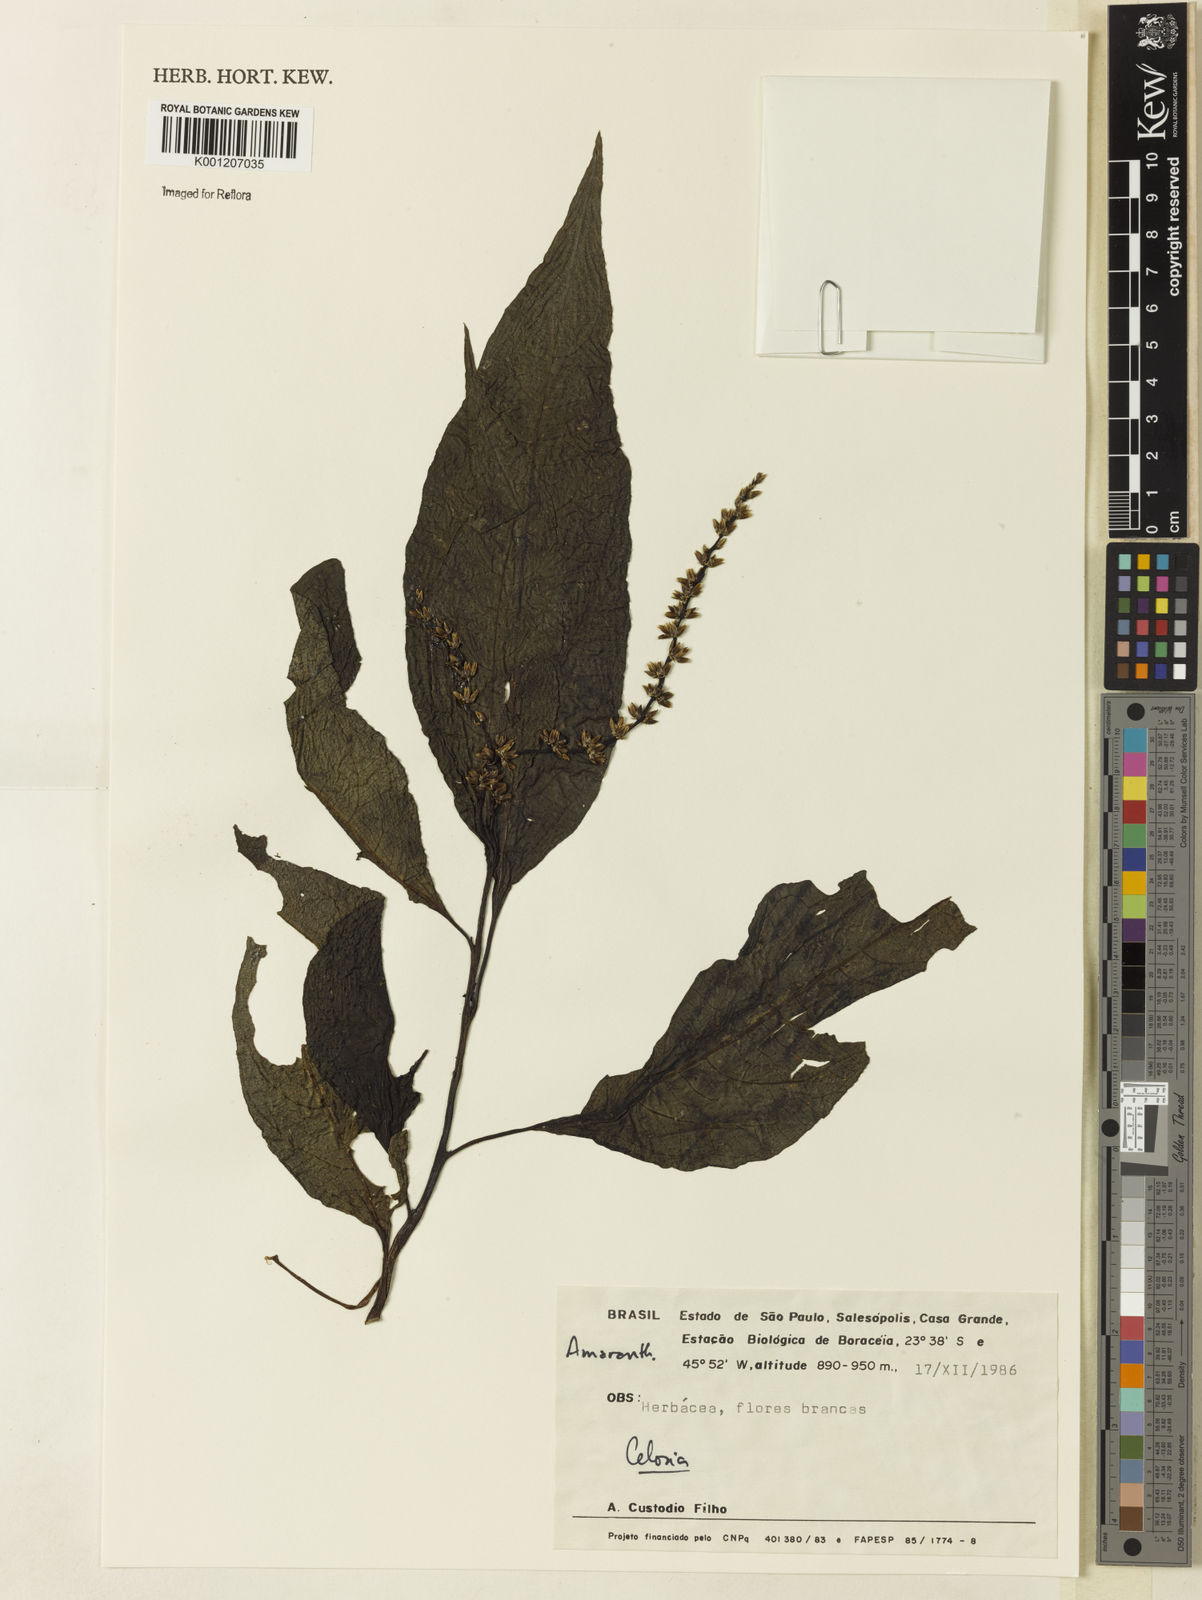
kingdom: Plantae
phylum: Tracheophyta
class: Magnoliopsida
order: Caryophyllales
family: Amaranthaceae
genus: Celosia
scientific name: Celosia
